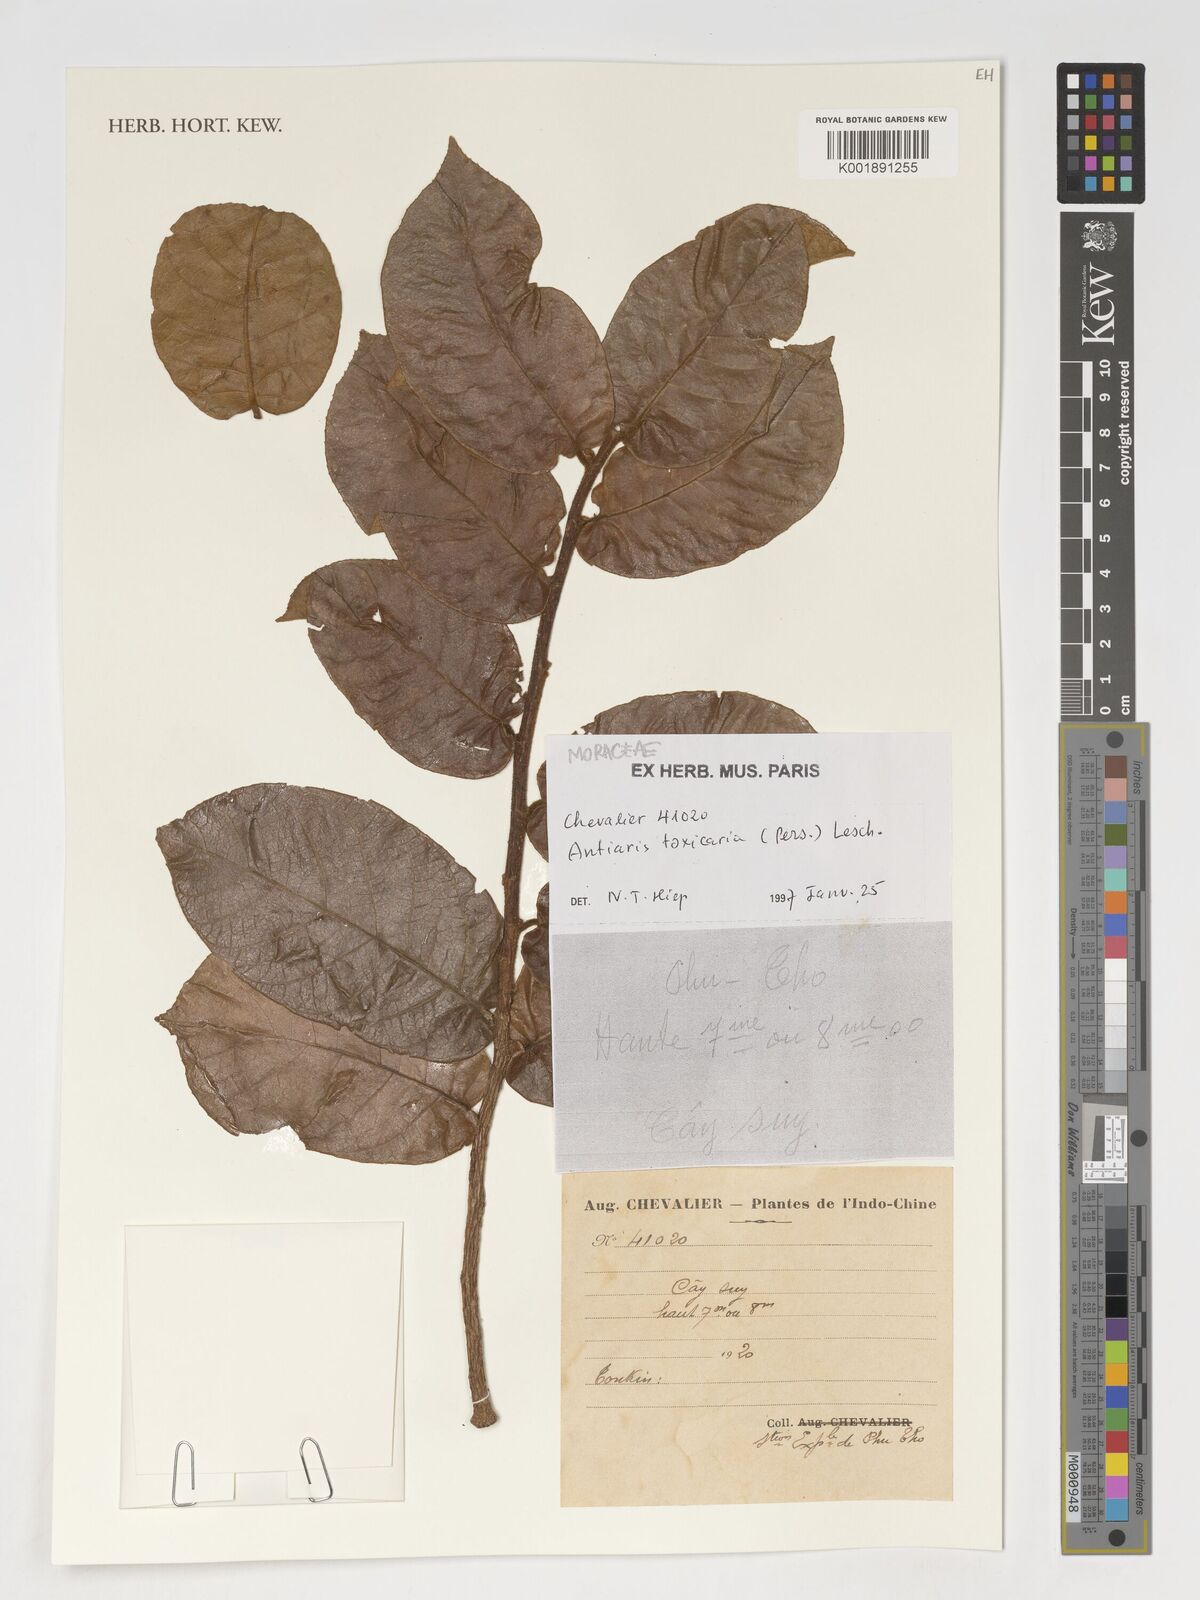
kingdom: Plantae
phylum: Tracheophyta
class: Magnoliopsida
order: Rosales
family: Moraceae
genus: Antiaris
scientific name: Antiaris toxicaria
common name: Sackingtree
